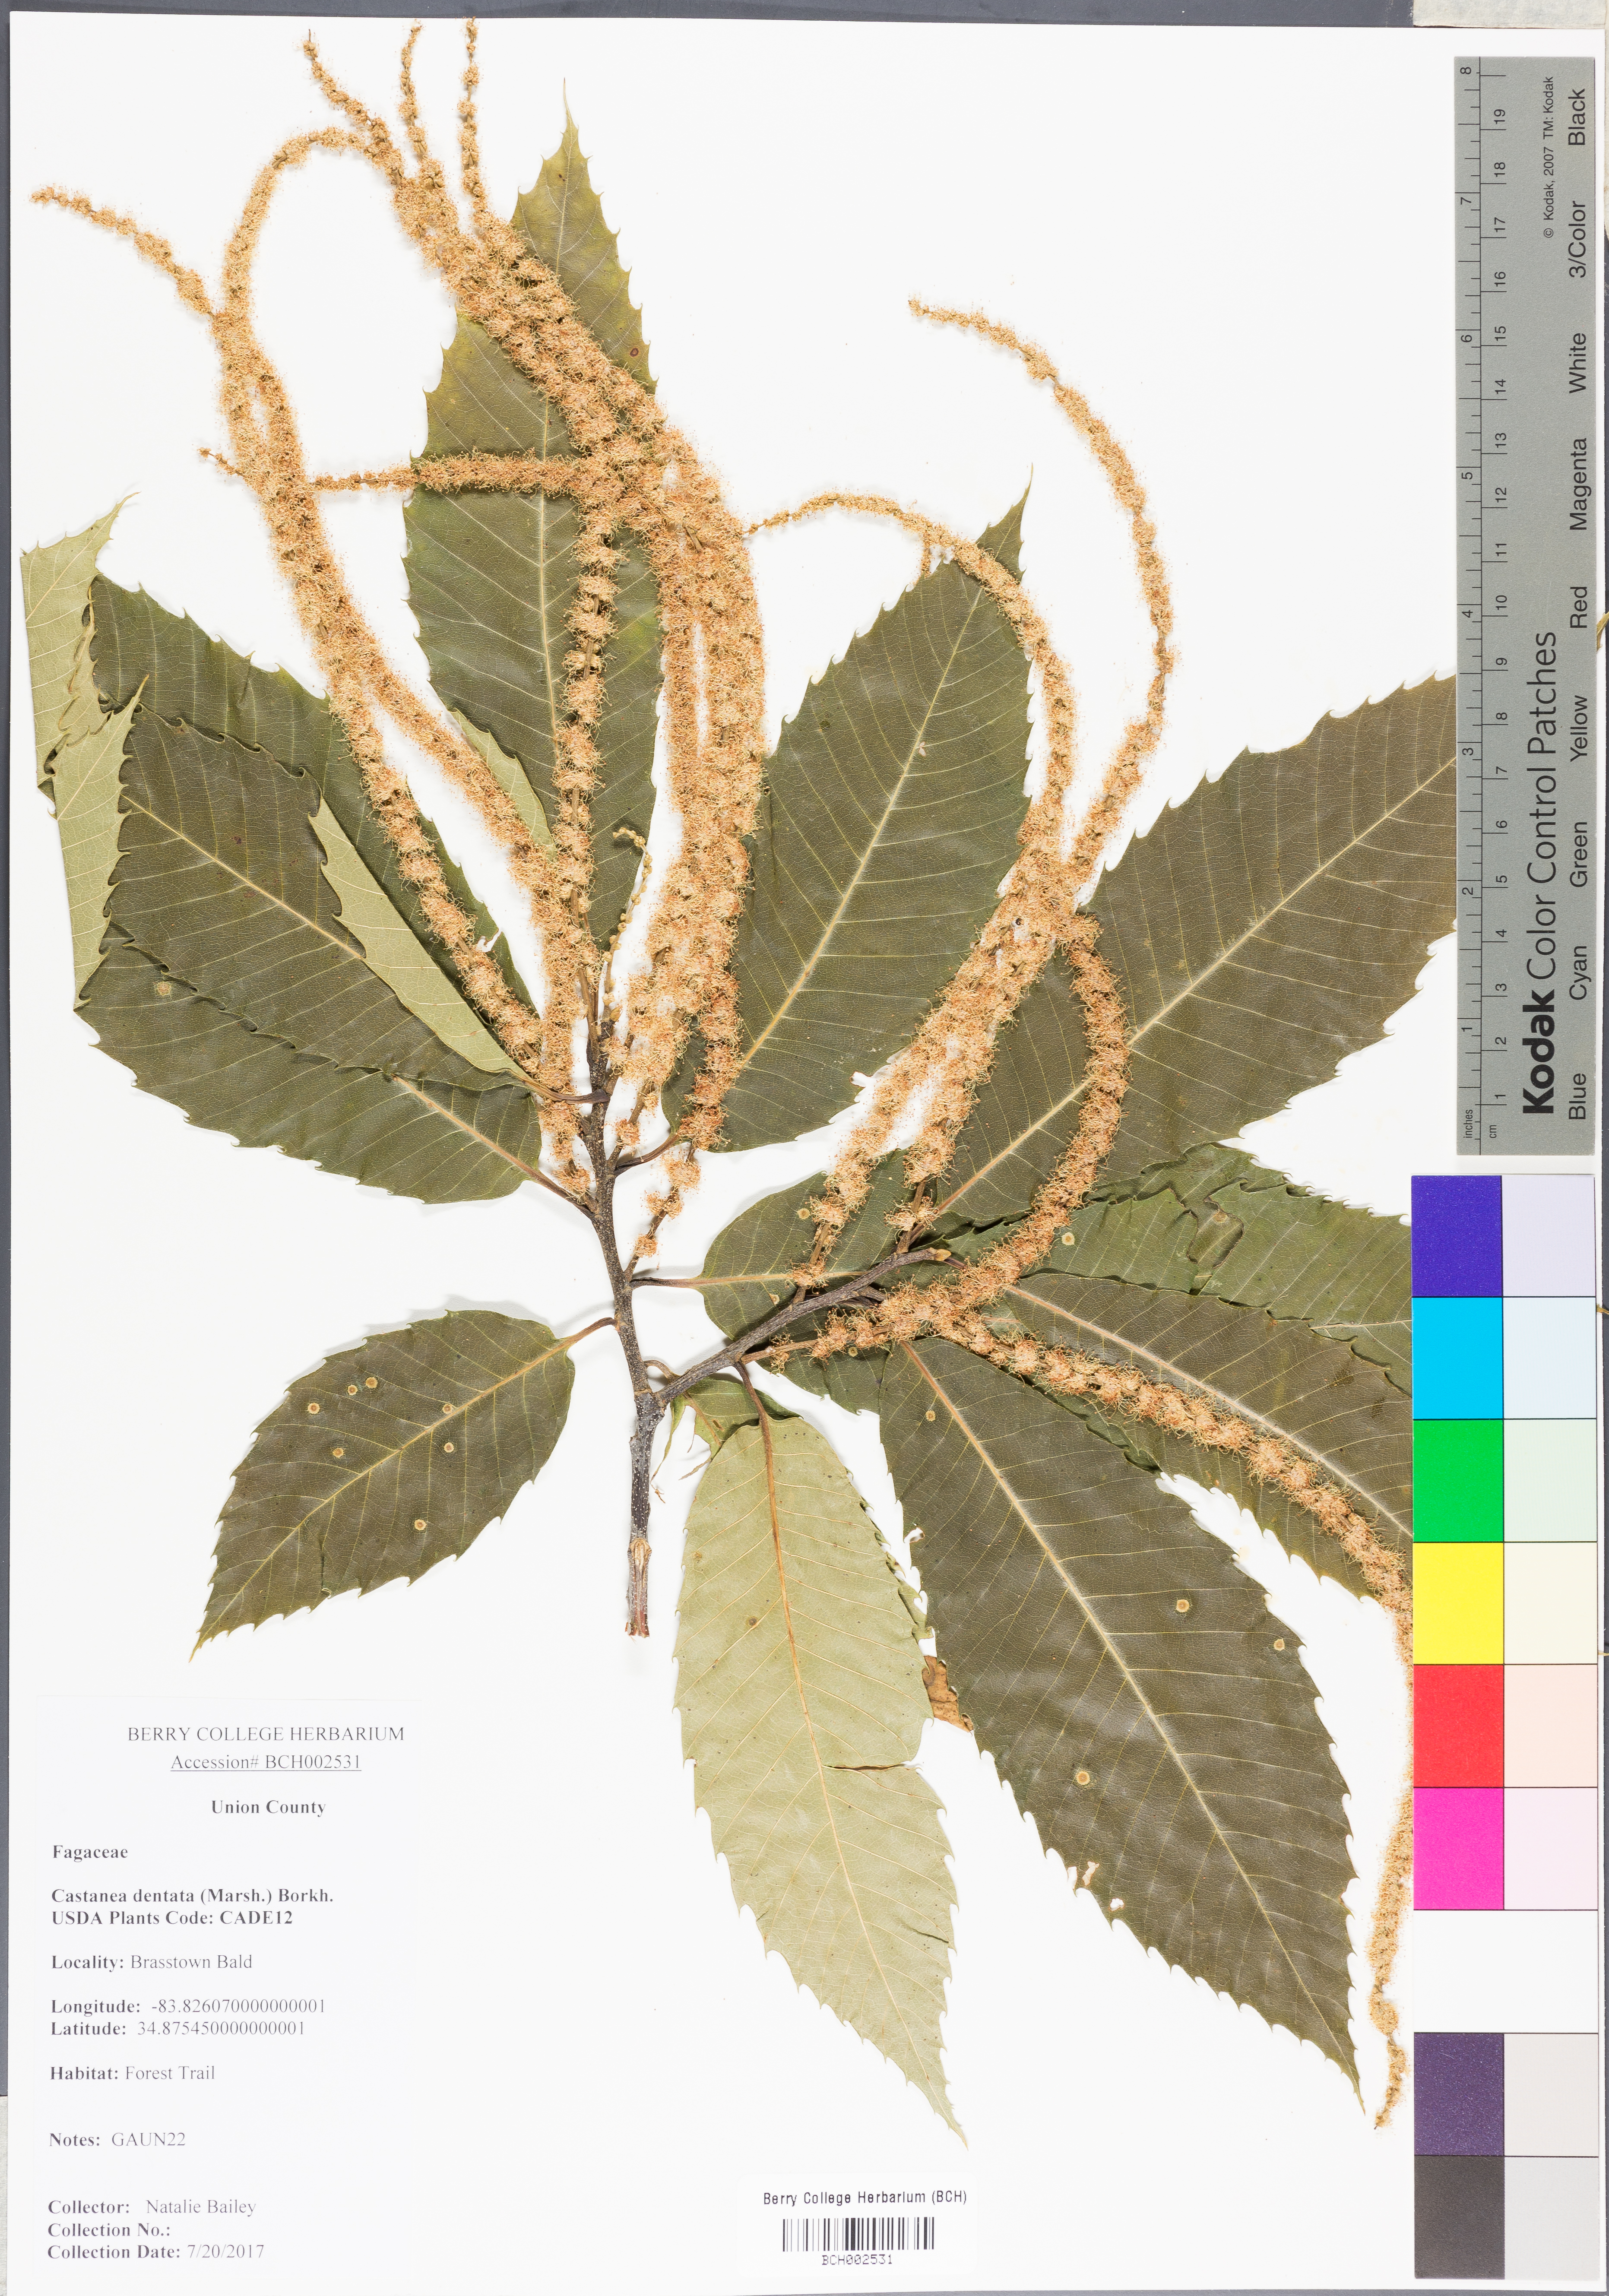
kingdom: Plantae
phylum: Tracheophyta
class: Magnoliopsida
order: Fagales
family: Fagaceae
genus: Castanea
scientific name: Castanea dentata
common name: American chestnut
